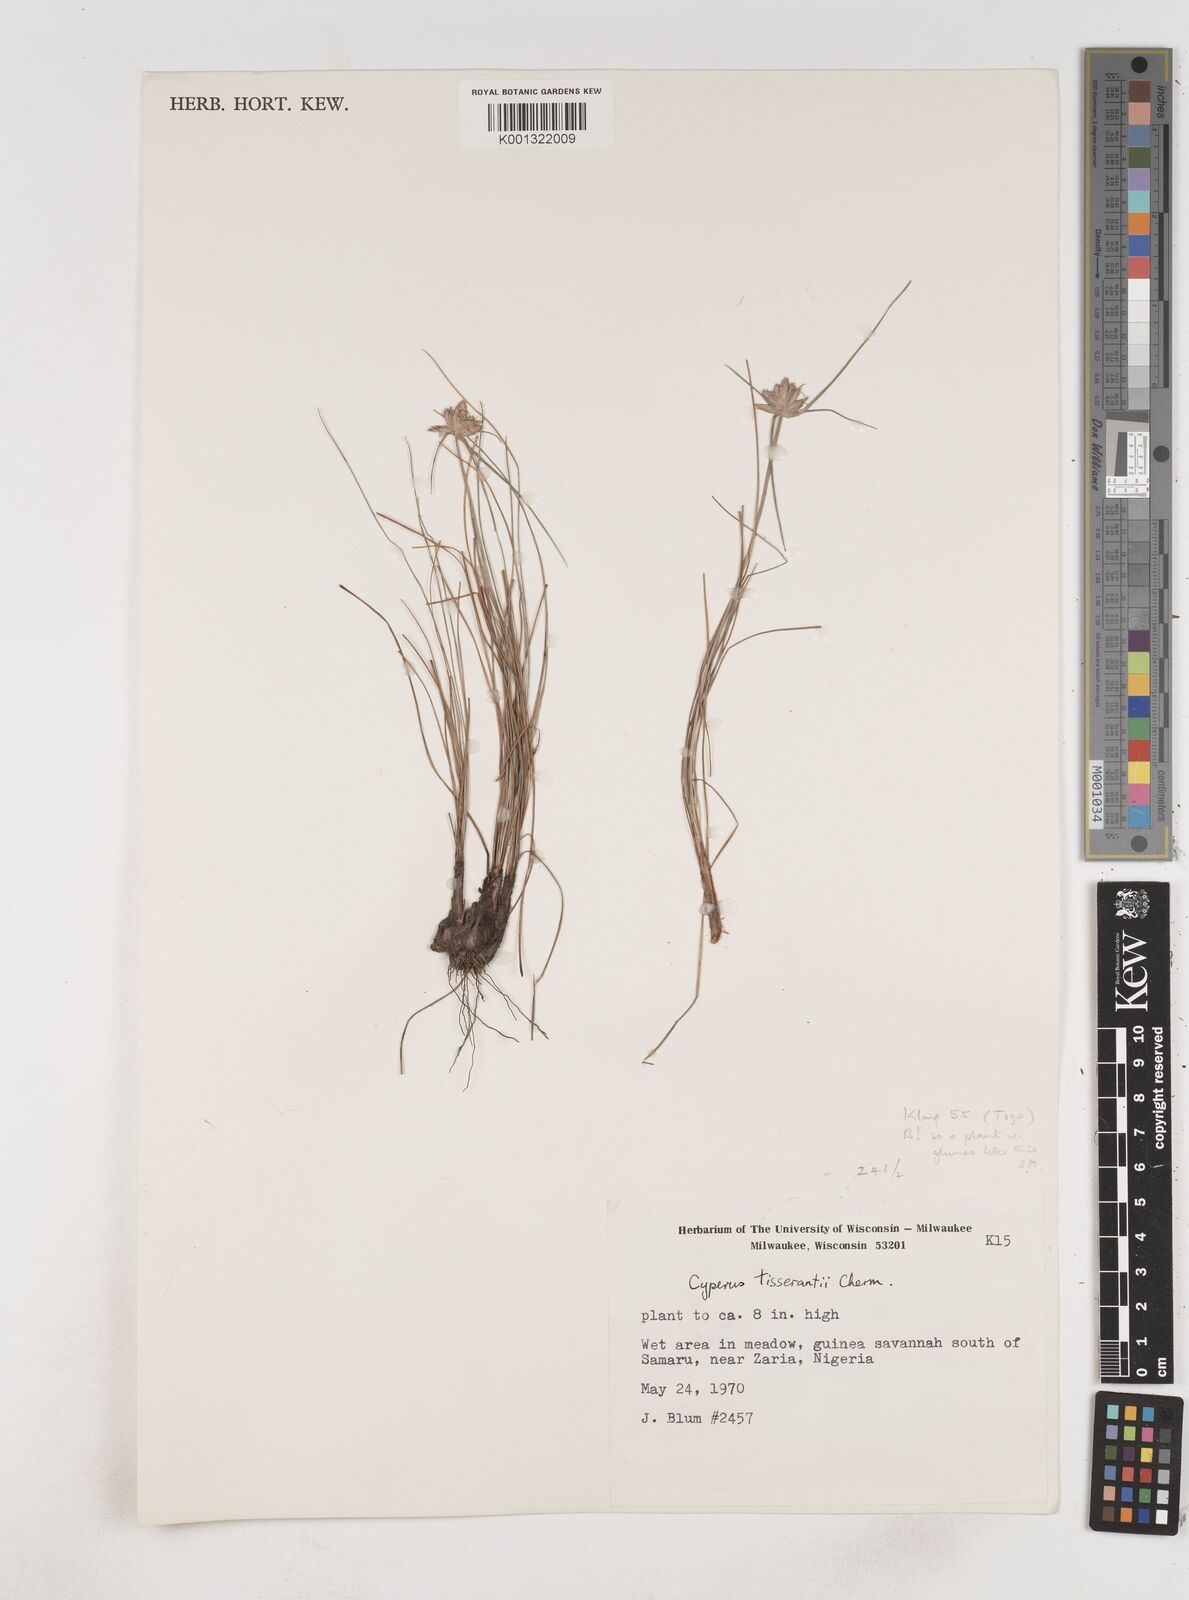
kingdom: Plantae
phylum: Tracheophyta
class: Liliopsida
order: Poales
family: Cyperaceae
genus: Cyperus
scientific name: Cyperus niveus
